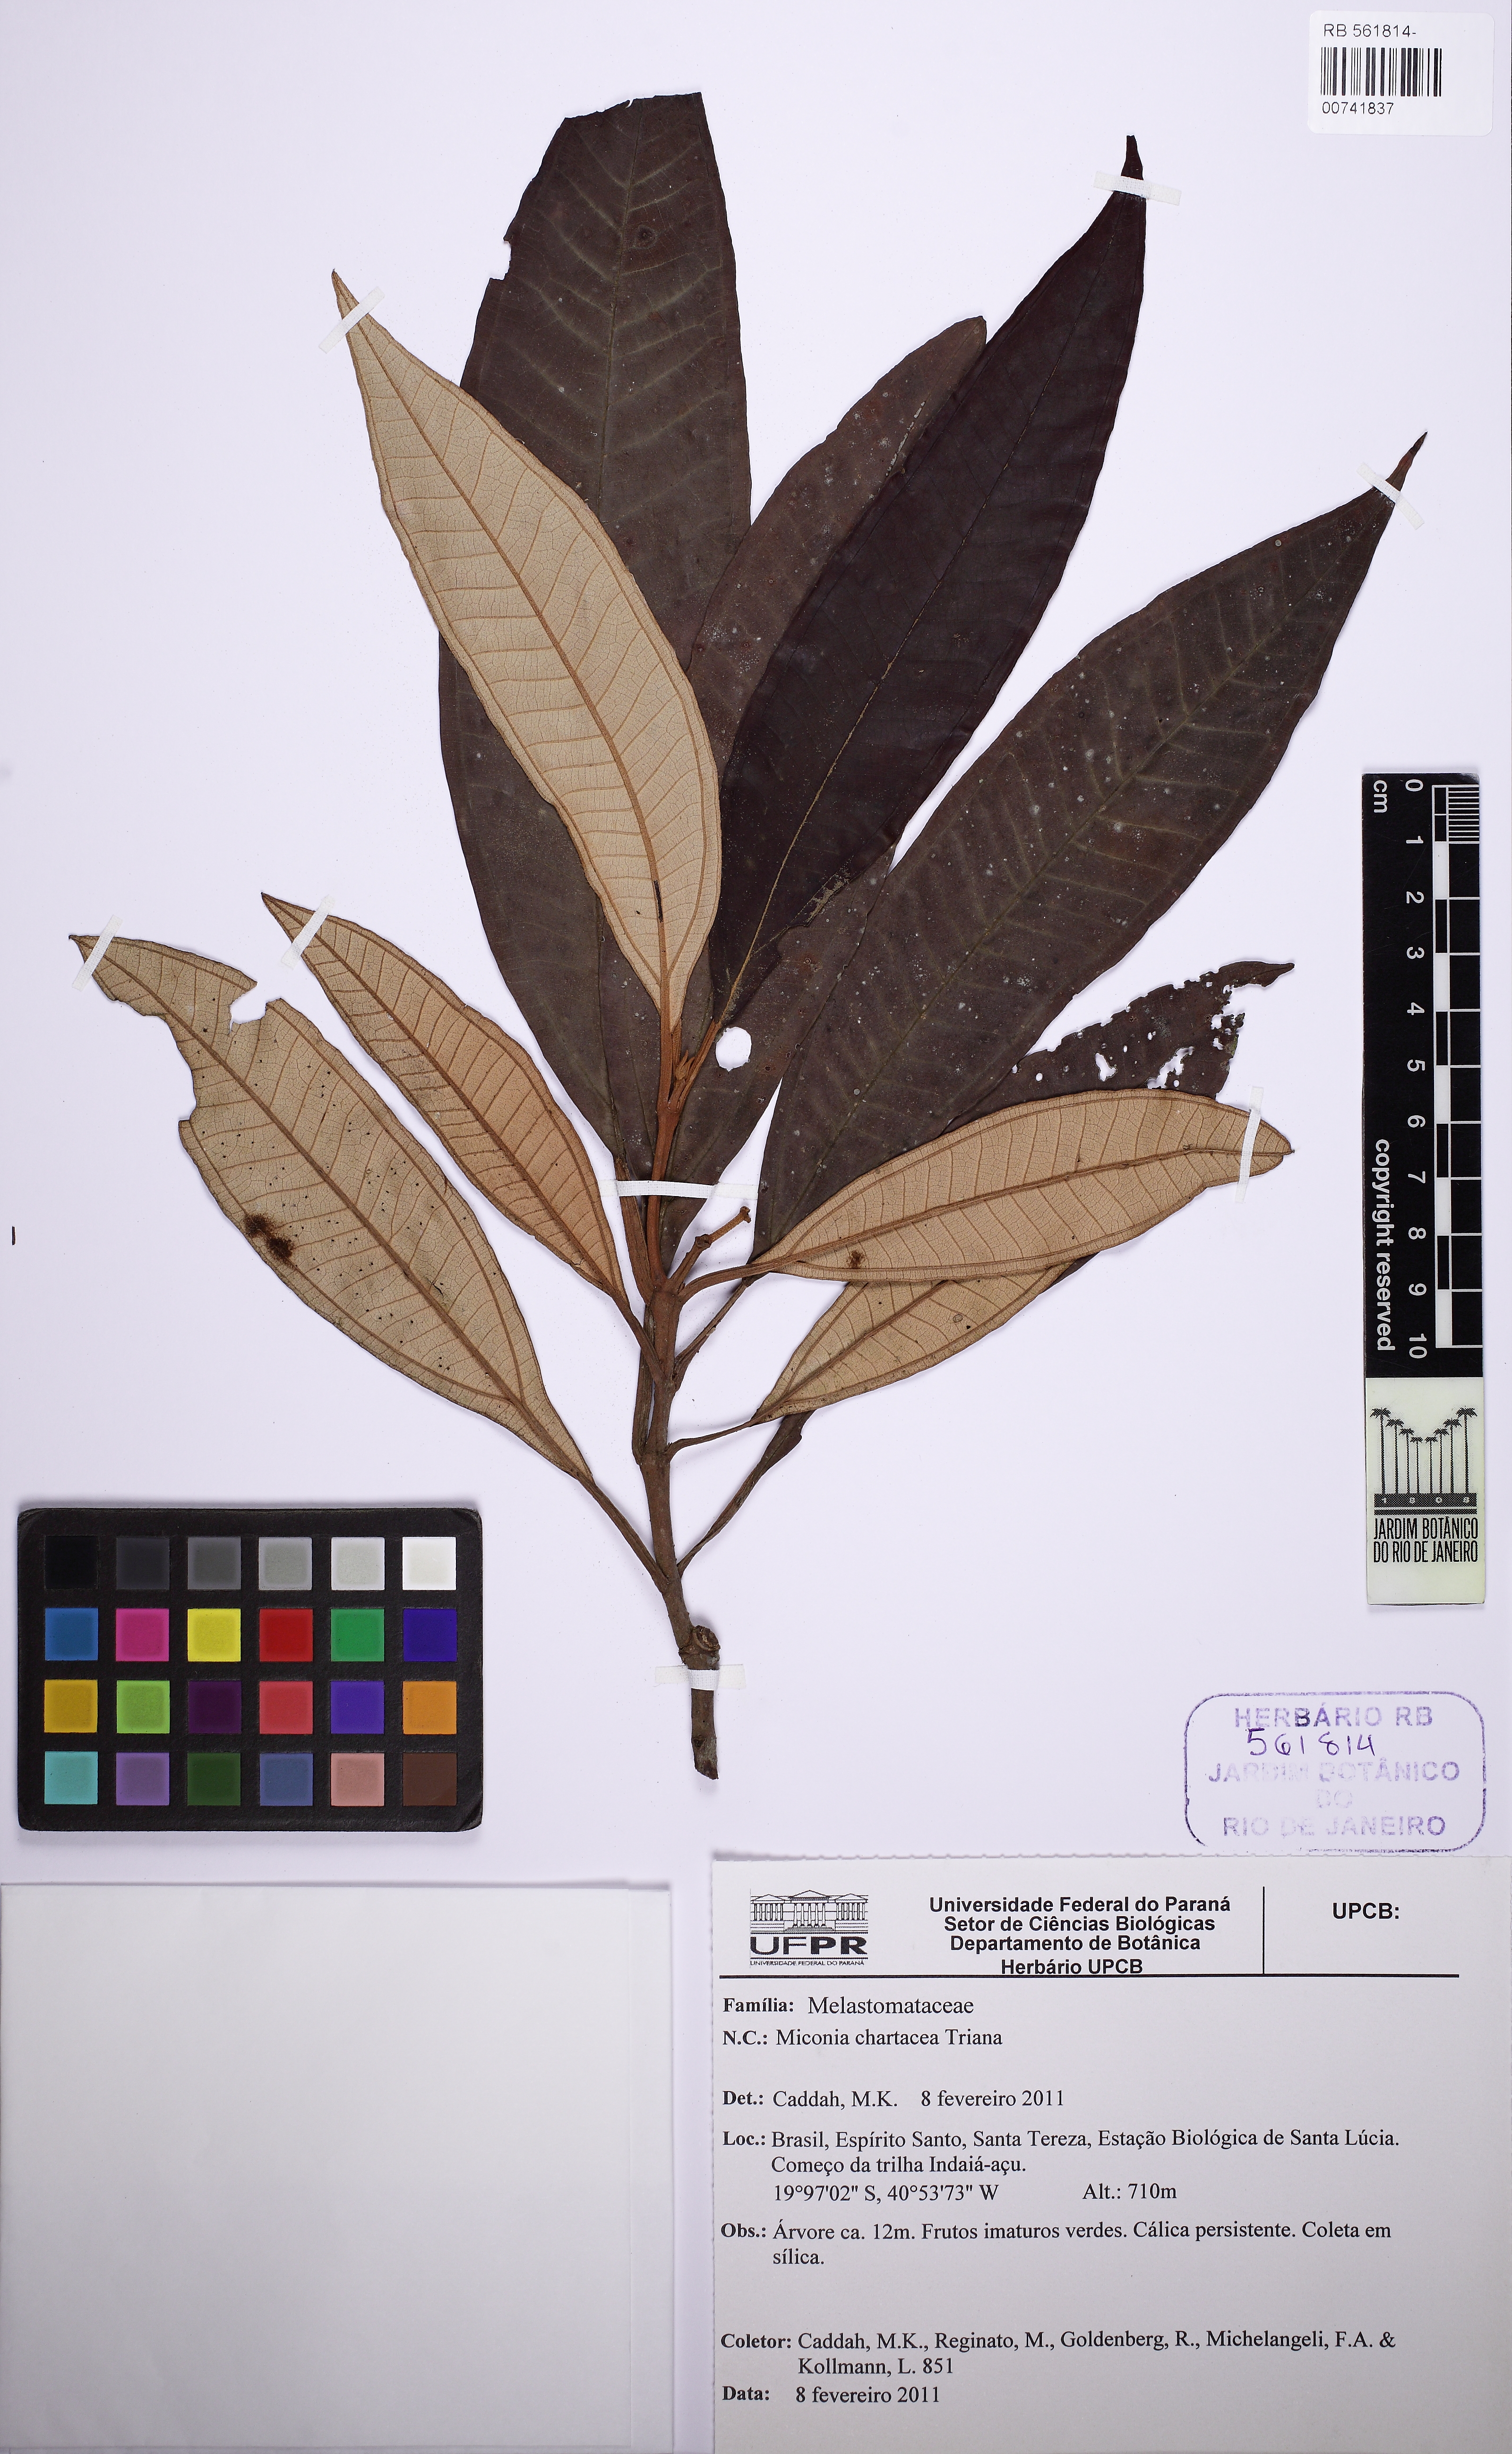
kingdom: Plantae
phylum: Tracheophyta
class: Magnoliopsida
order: Myrtales
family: Melastomataceae
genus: Miconia
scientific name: Miconia chartacea
